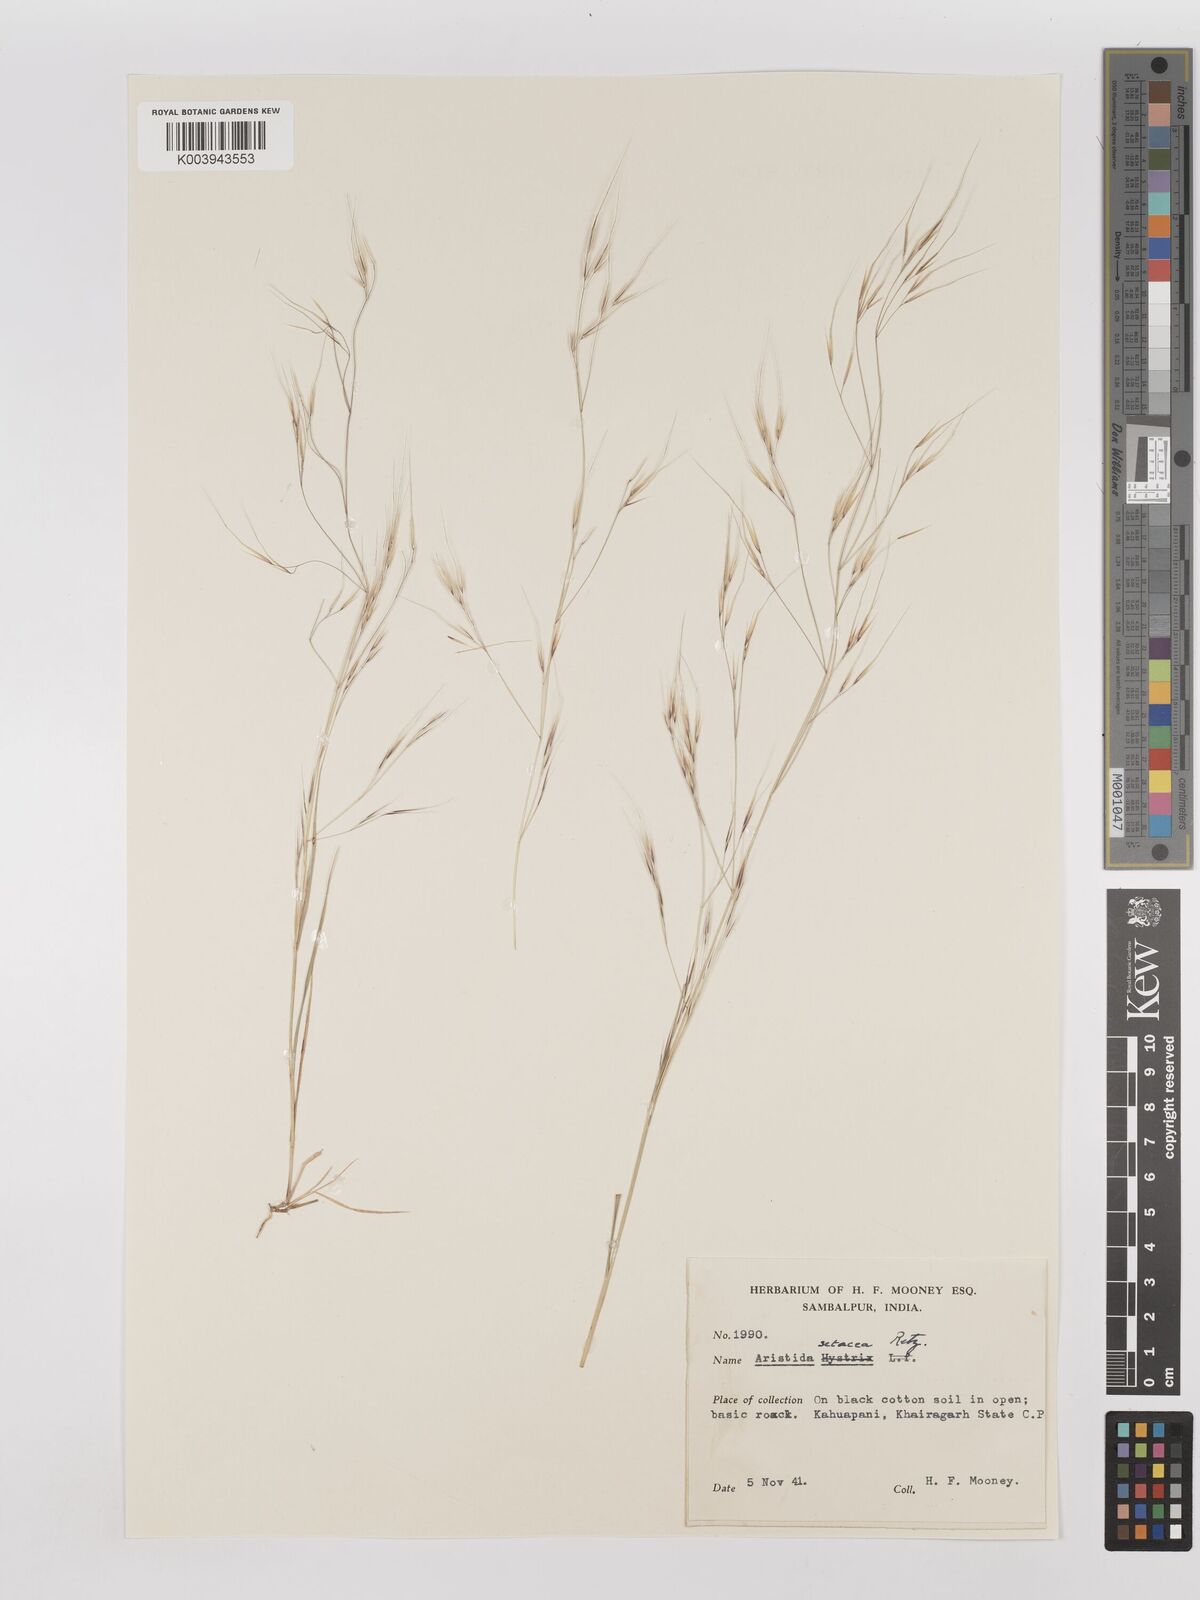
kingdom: Plantae
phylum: Tracheophyta
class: Liliopsida
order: Poales
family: Poaceae
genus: Aristida
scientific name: Aristida setacea
